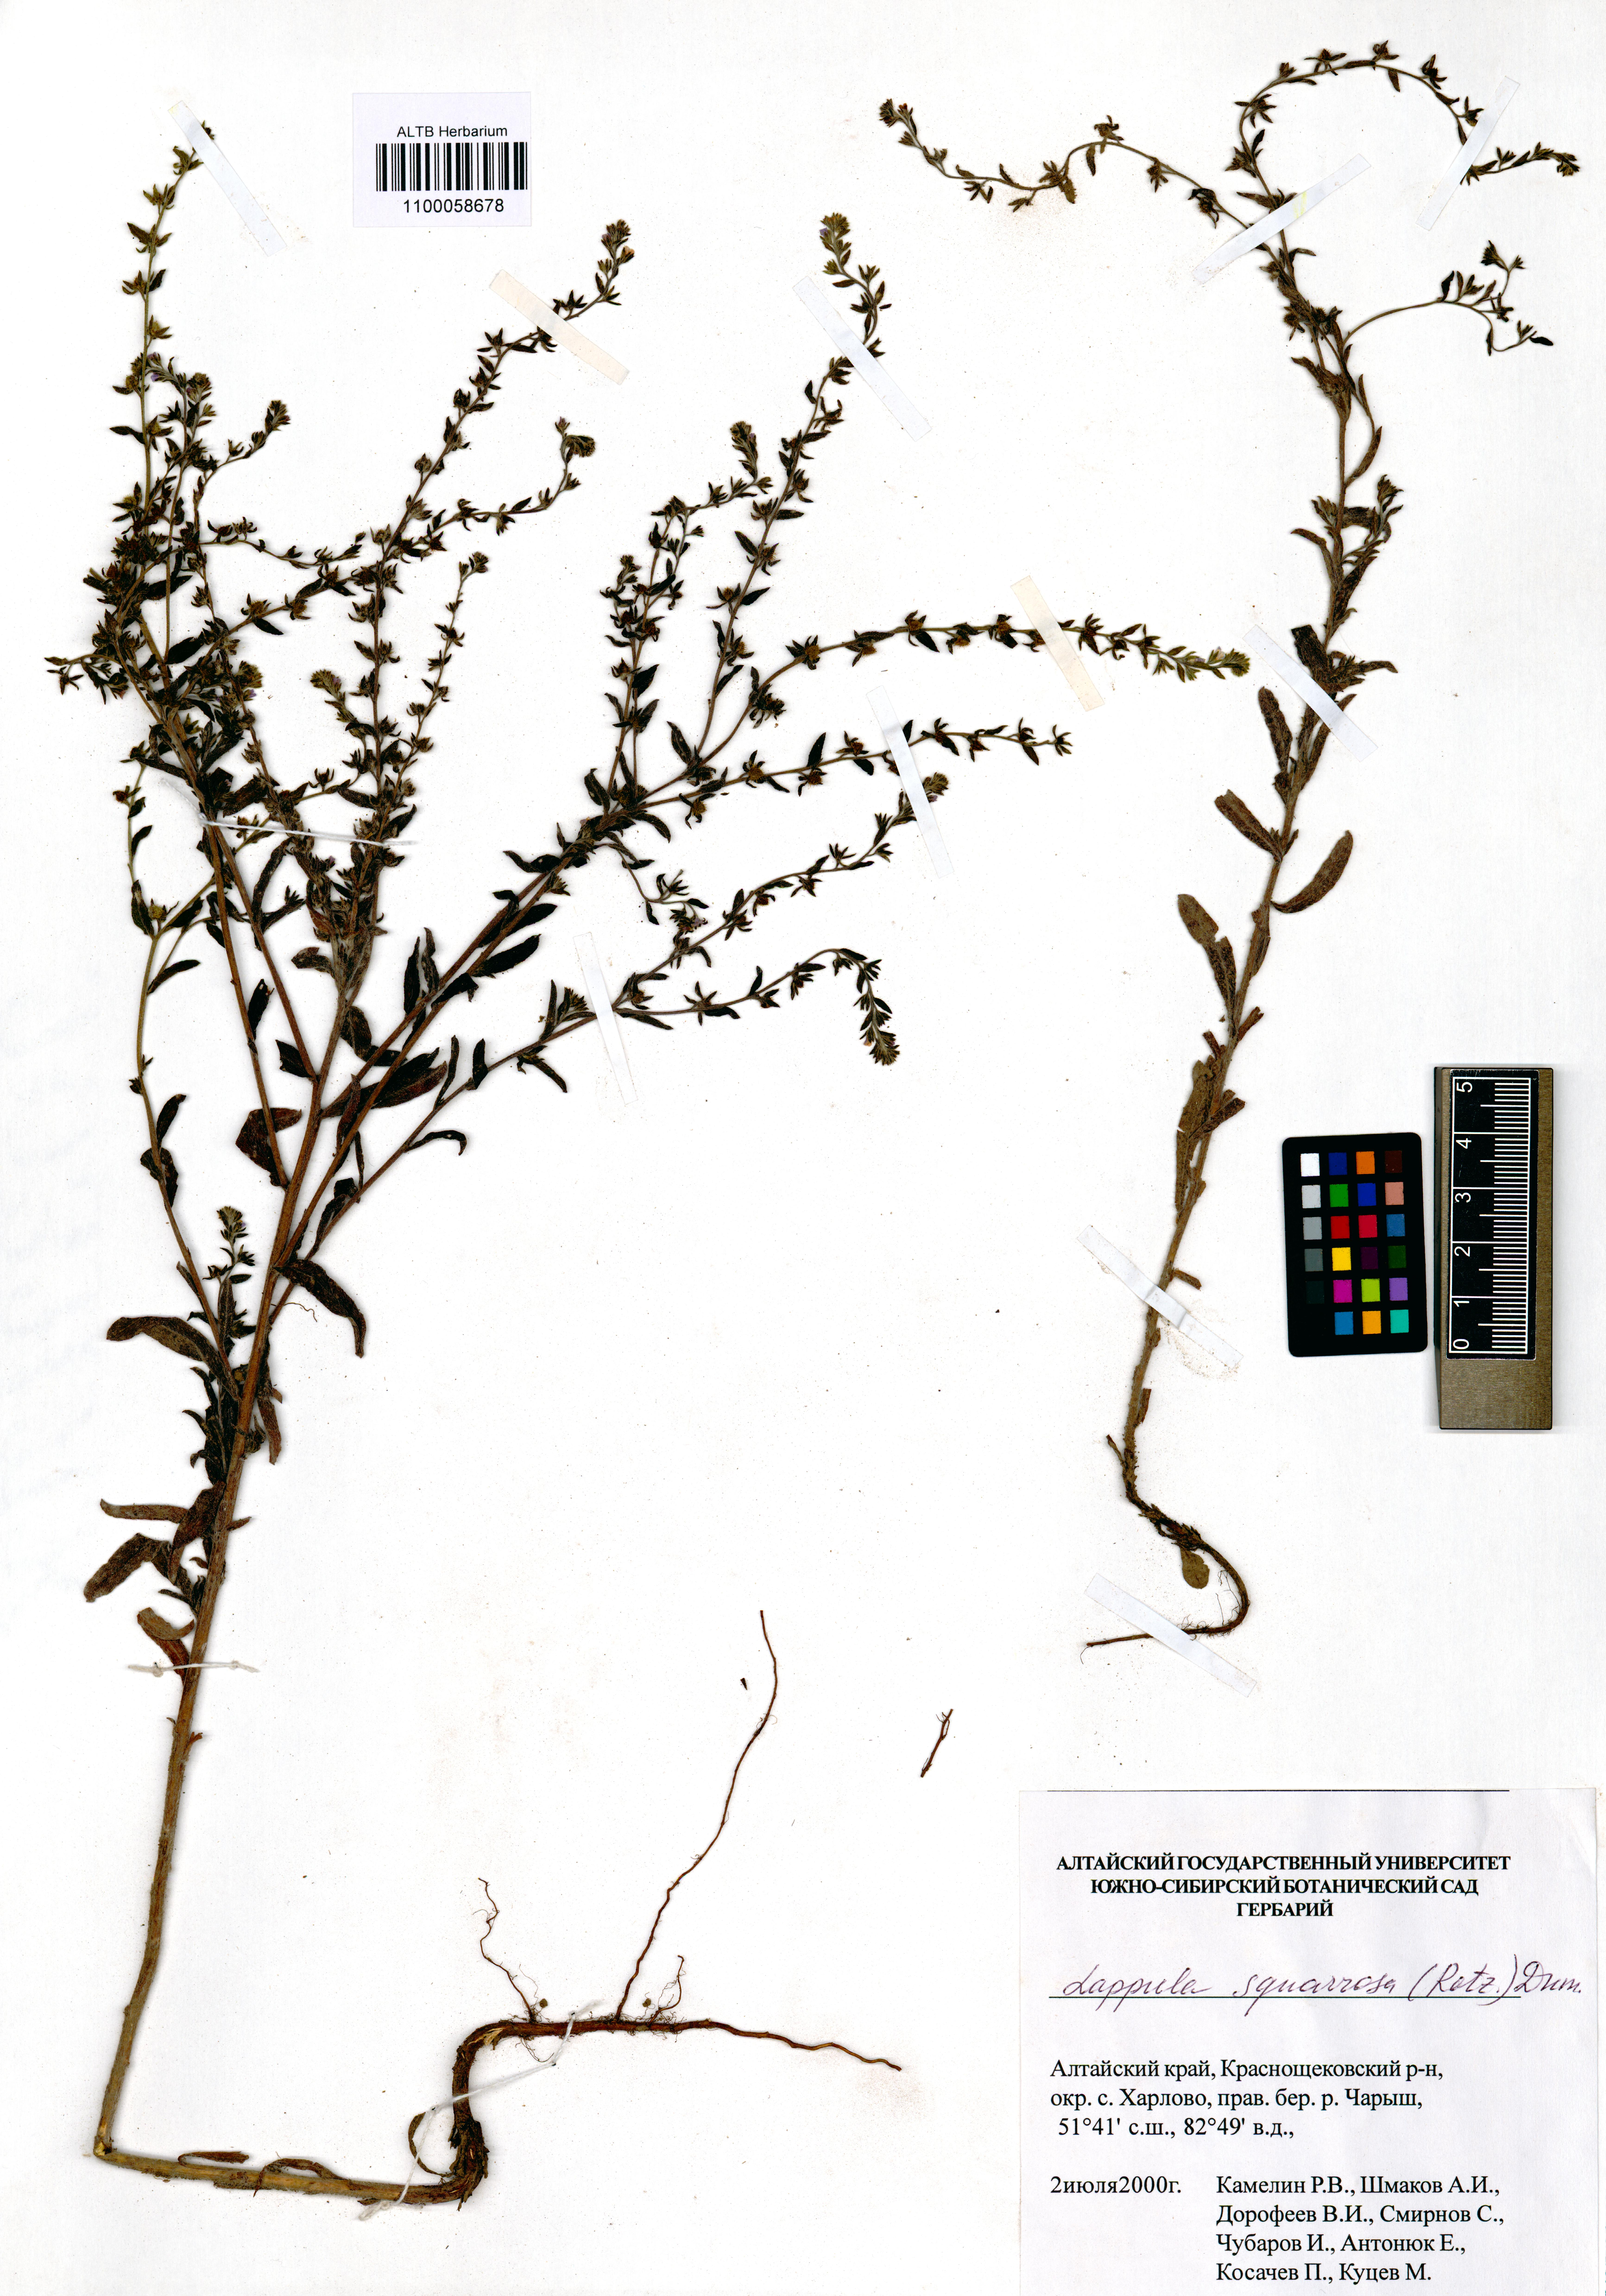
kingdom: Plantae
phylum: Tracheophyta
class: Magnoliopsida
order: Boraginales
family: Boraginaceae
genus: Lappula
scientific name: Lappula squarrosa
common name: European stickseed
